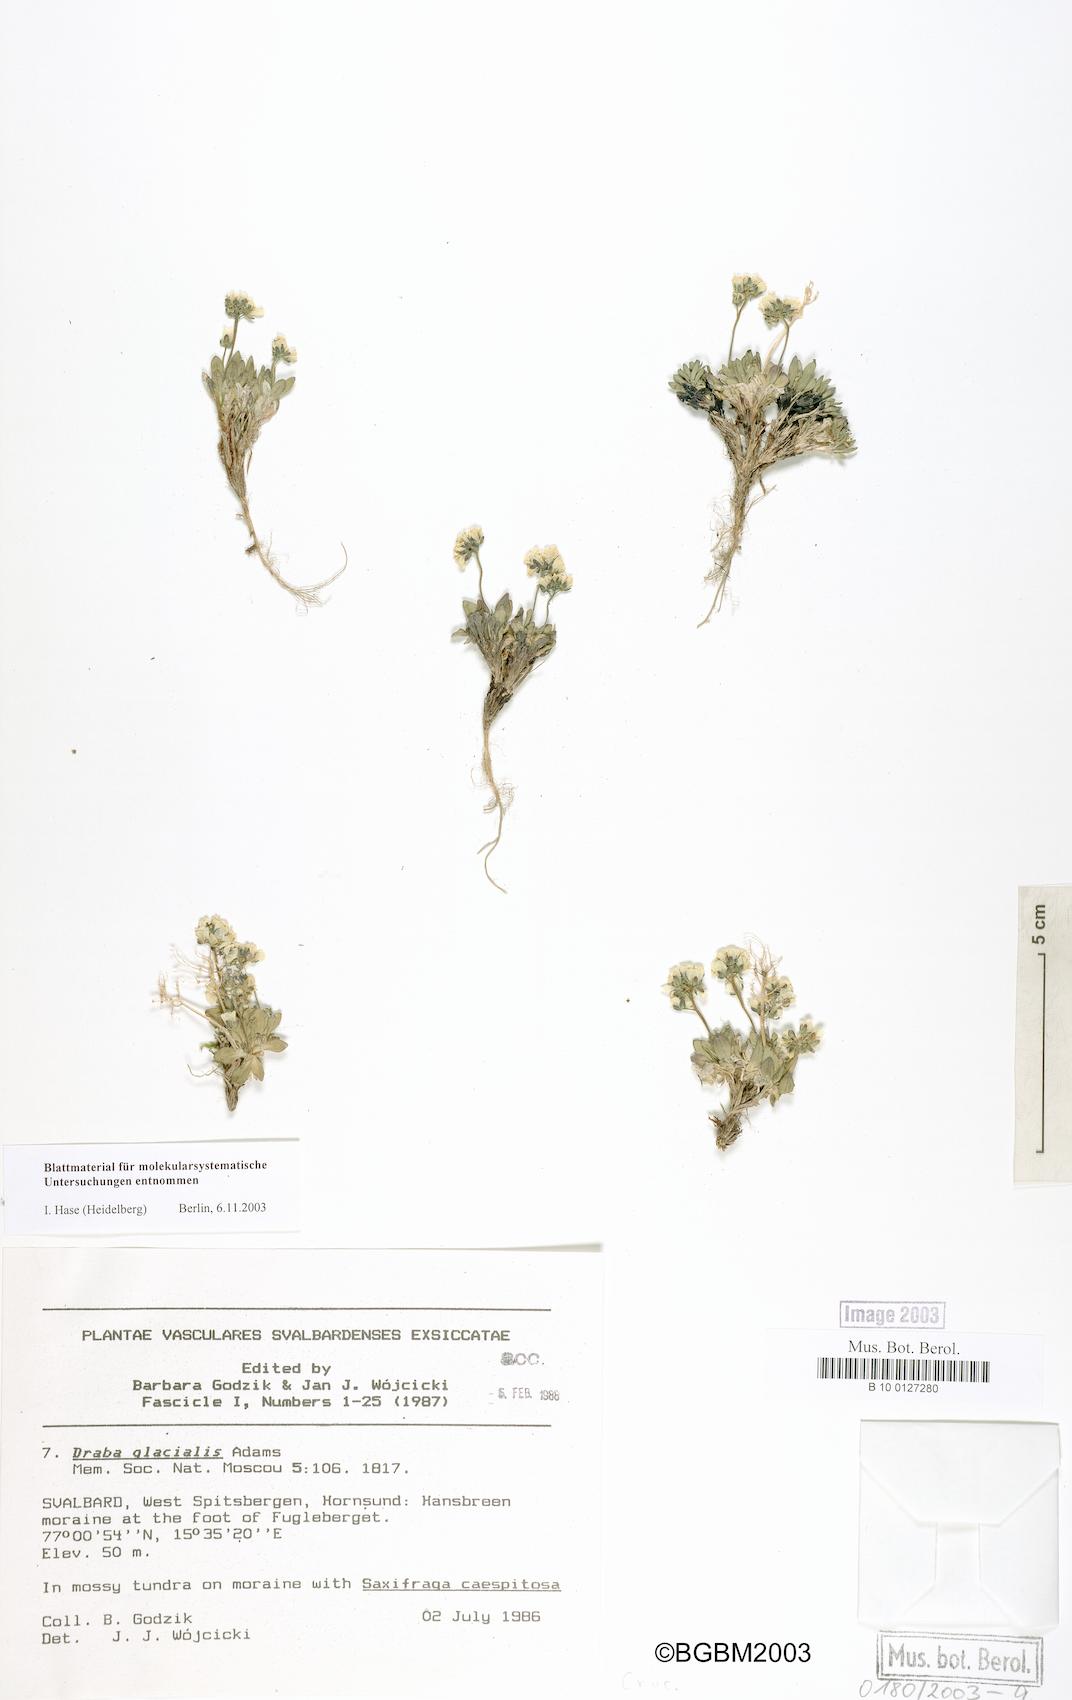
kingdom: Plantae
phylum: Tracheophyta
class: Magnoliopsida
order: Brassicales
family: Brassicaceae
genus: Draba
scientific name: Draba alpina
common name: Alpine draba
